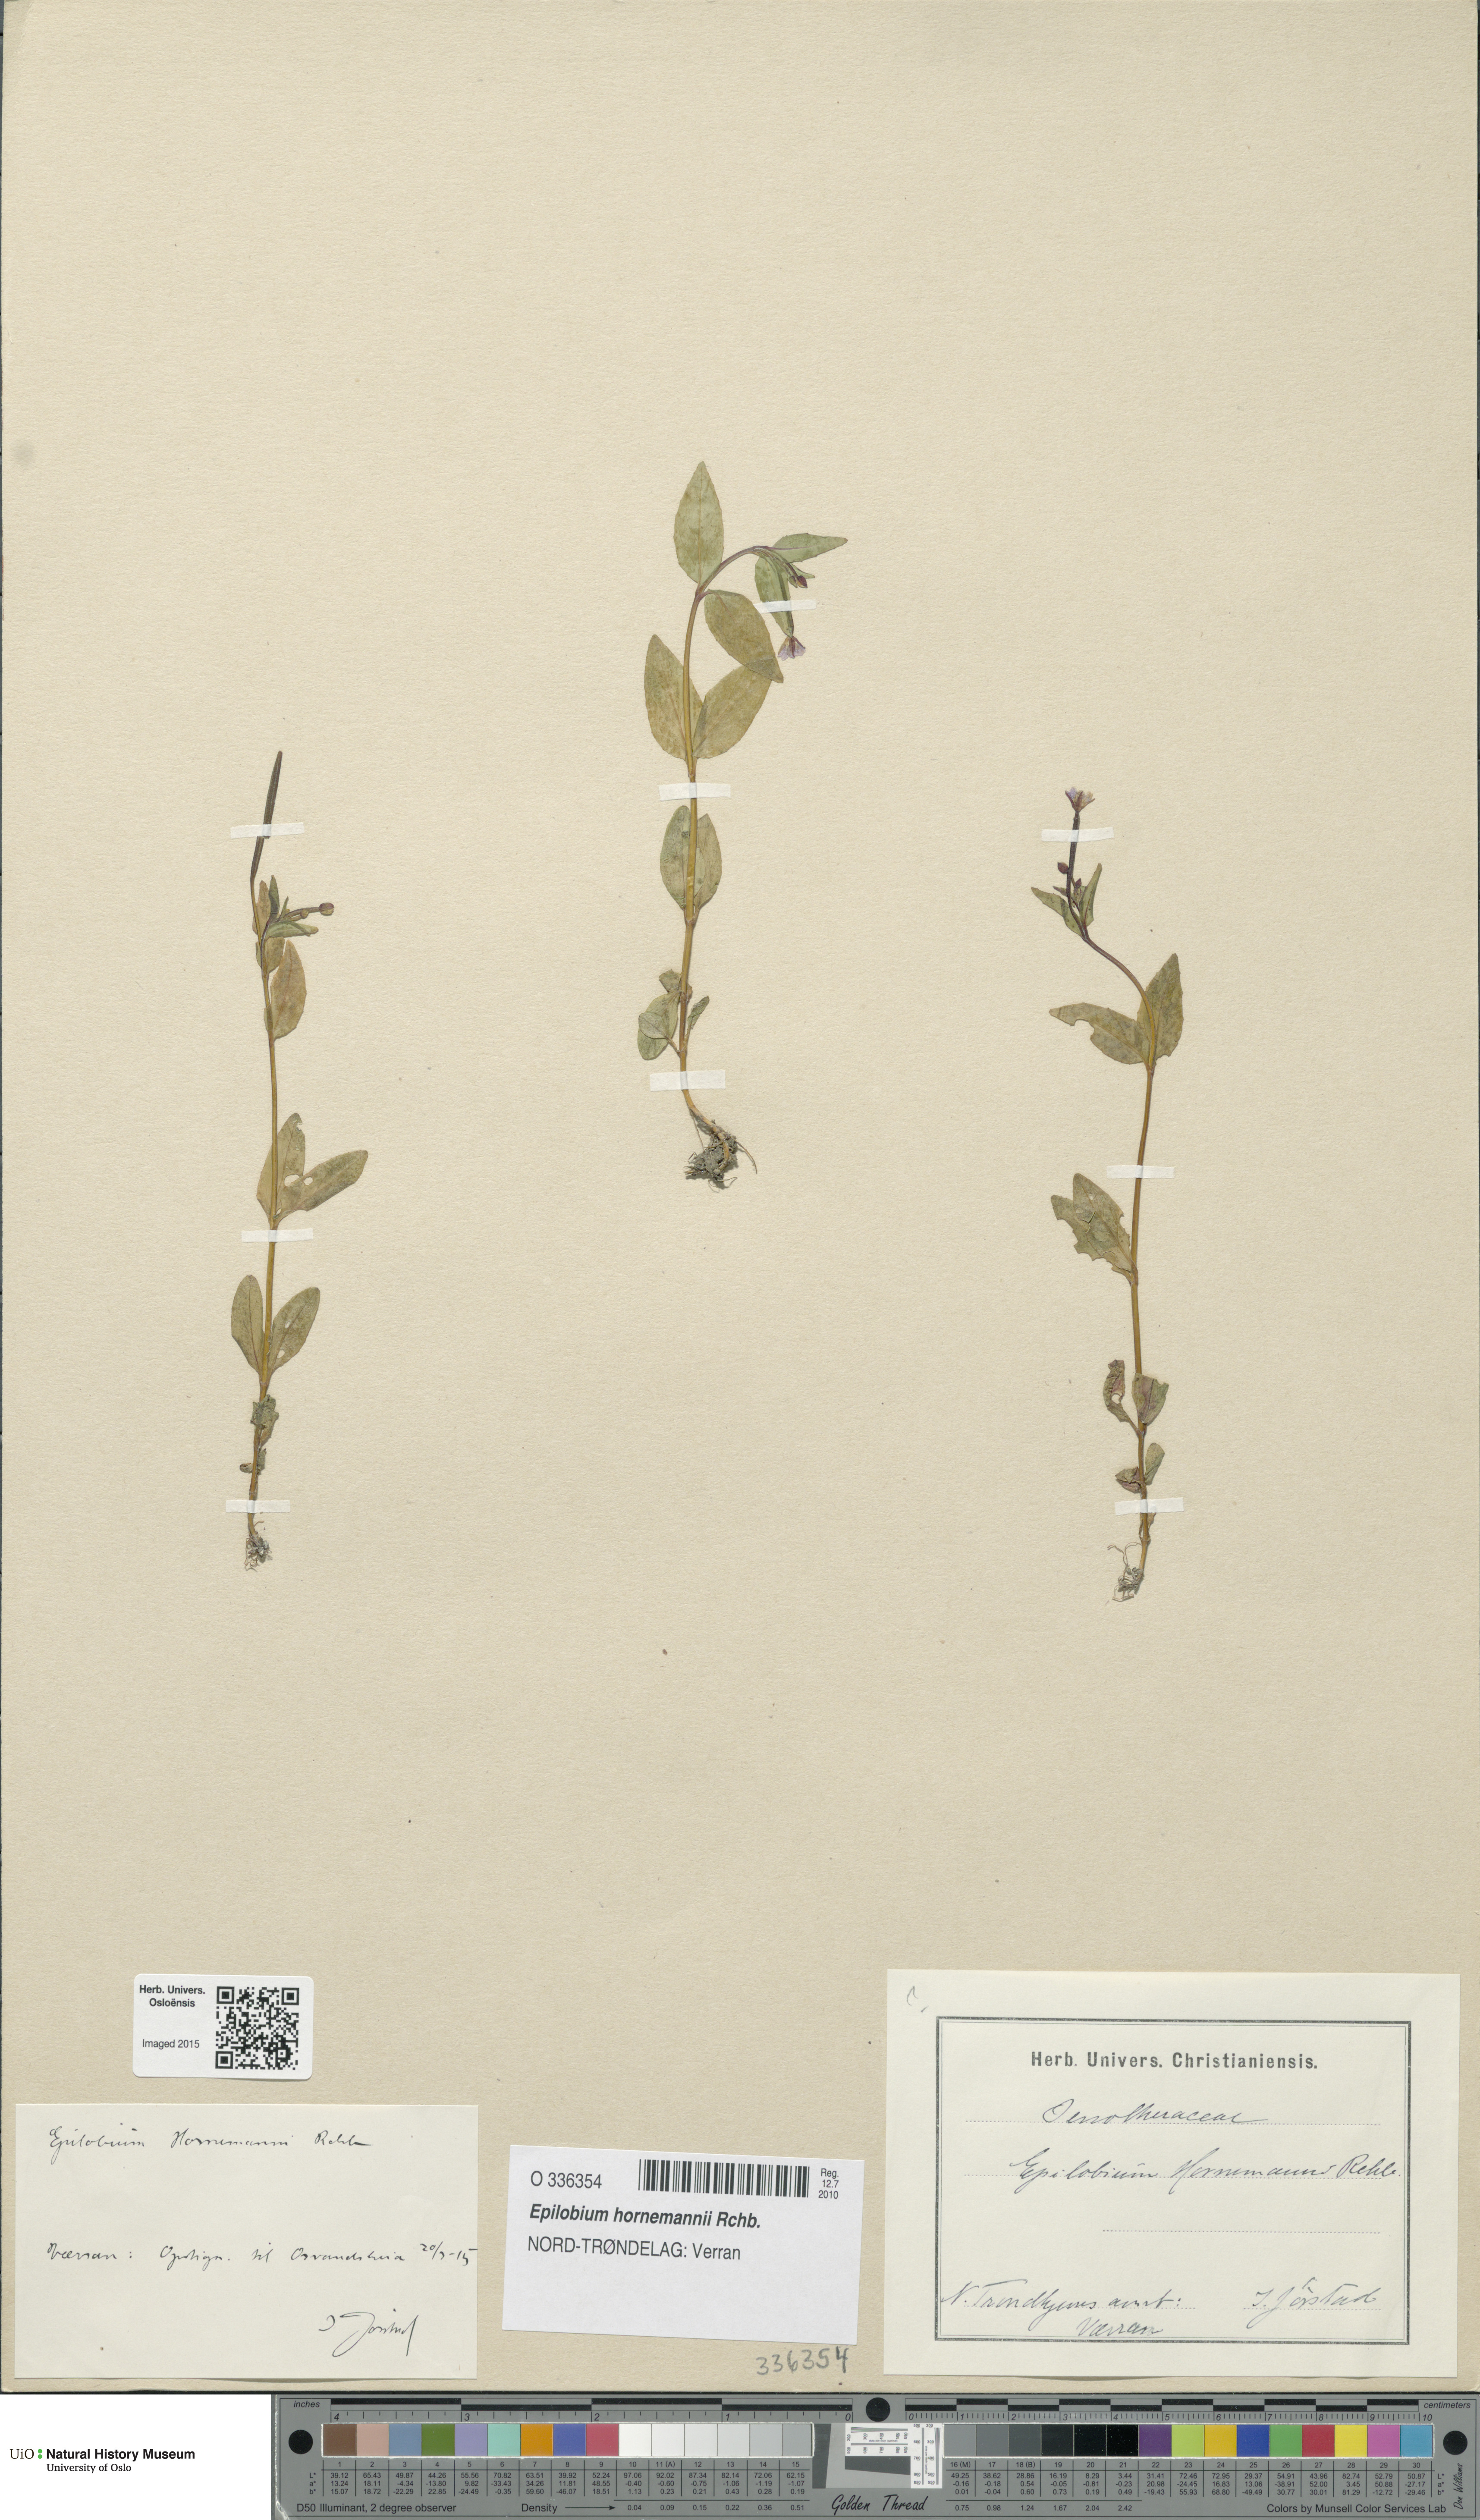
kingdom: Plantae
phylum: Tracheophyta
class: Magnoliopsida
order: Myrtales
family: Onagraceae
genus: Epilobium
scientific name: Epilobium hornemannii
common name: Hornemann's willowherb
